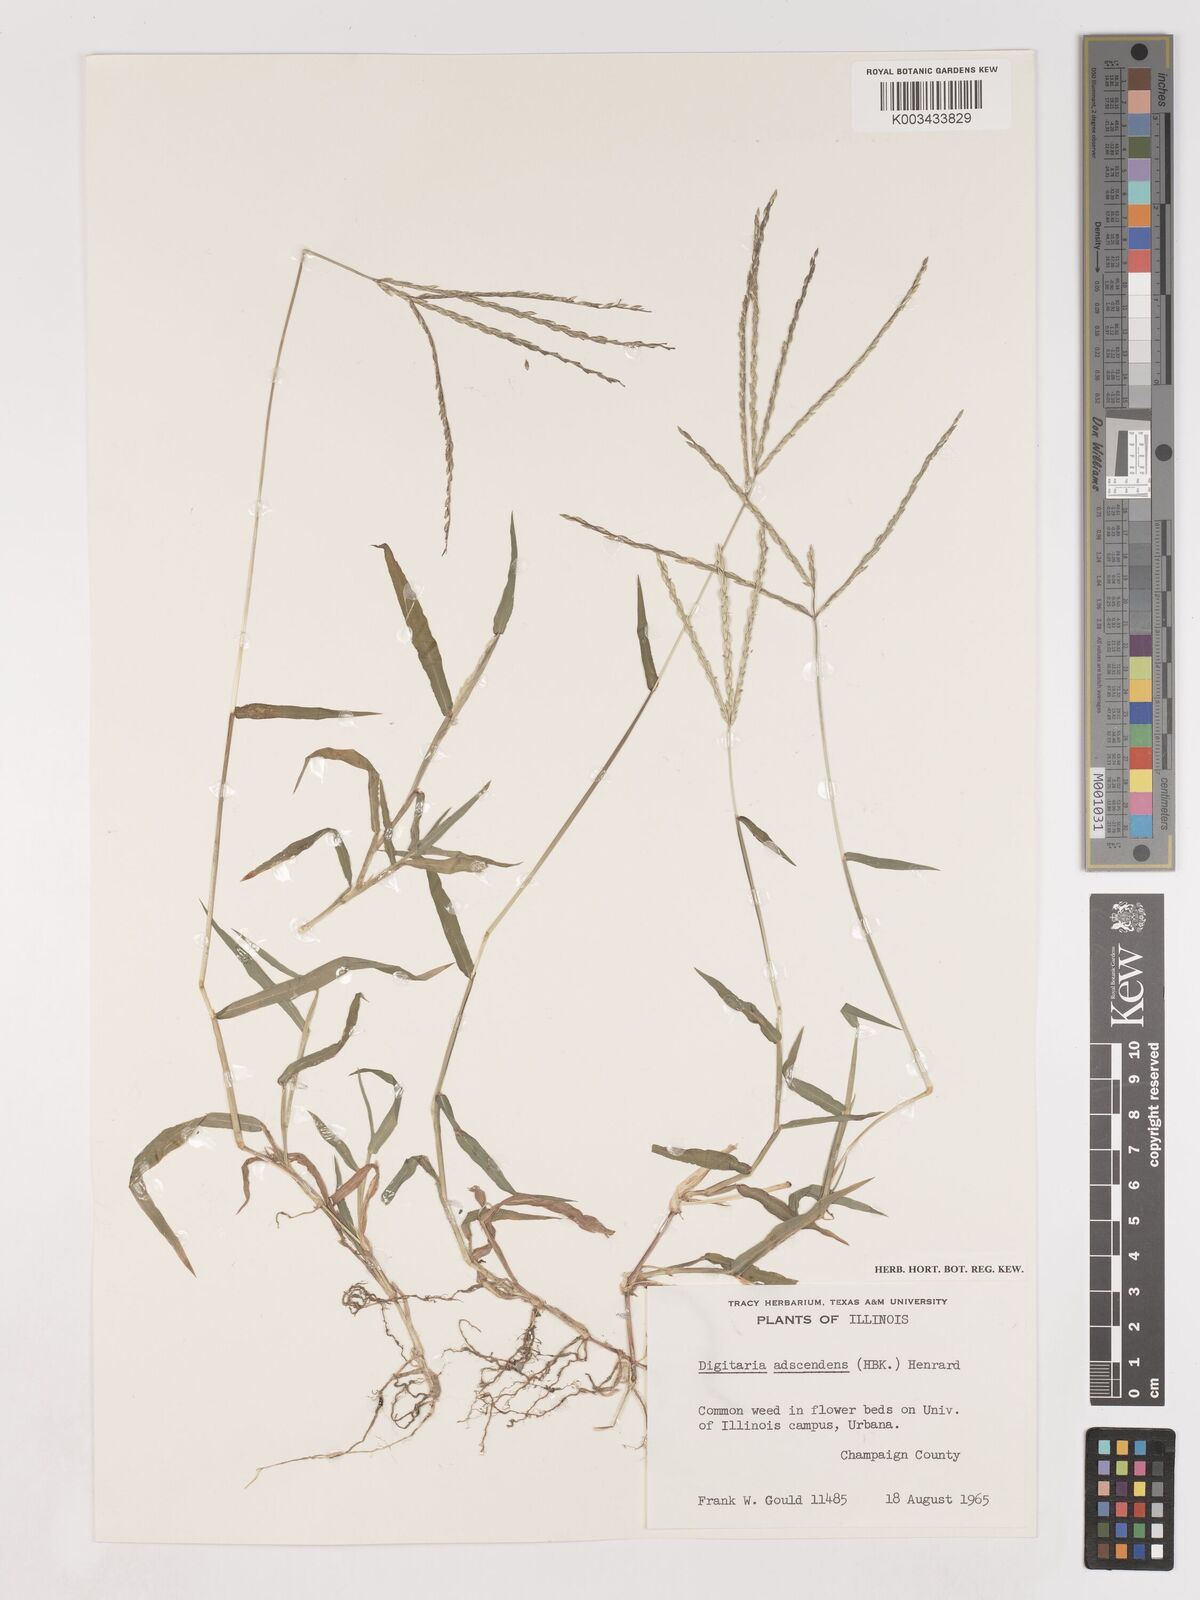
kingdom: Plantae
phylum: Tracheophyta
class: Liliopsida
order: Poales
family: Poaceae
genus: Digitaria
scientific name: Digitaria ciliaris
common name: Tropical finger-grass
